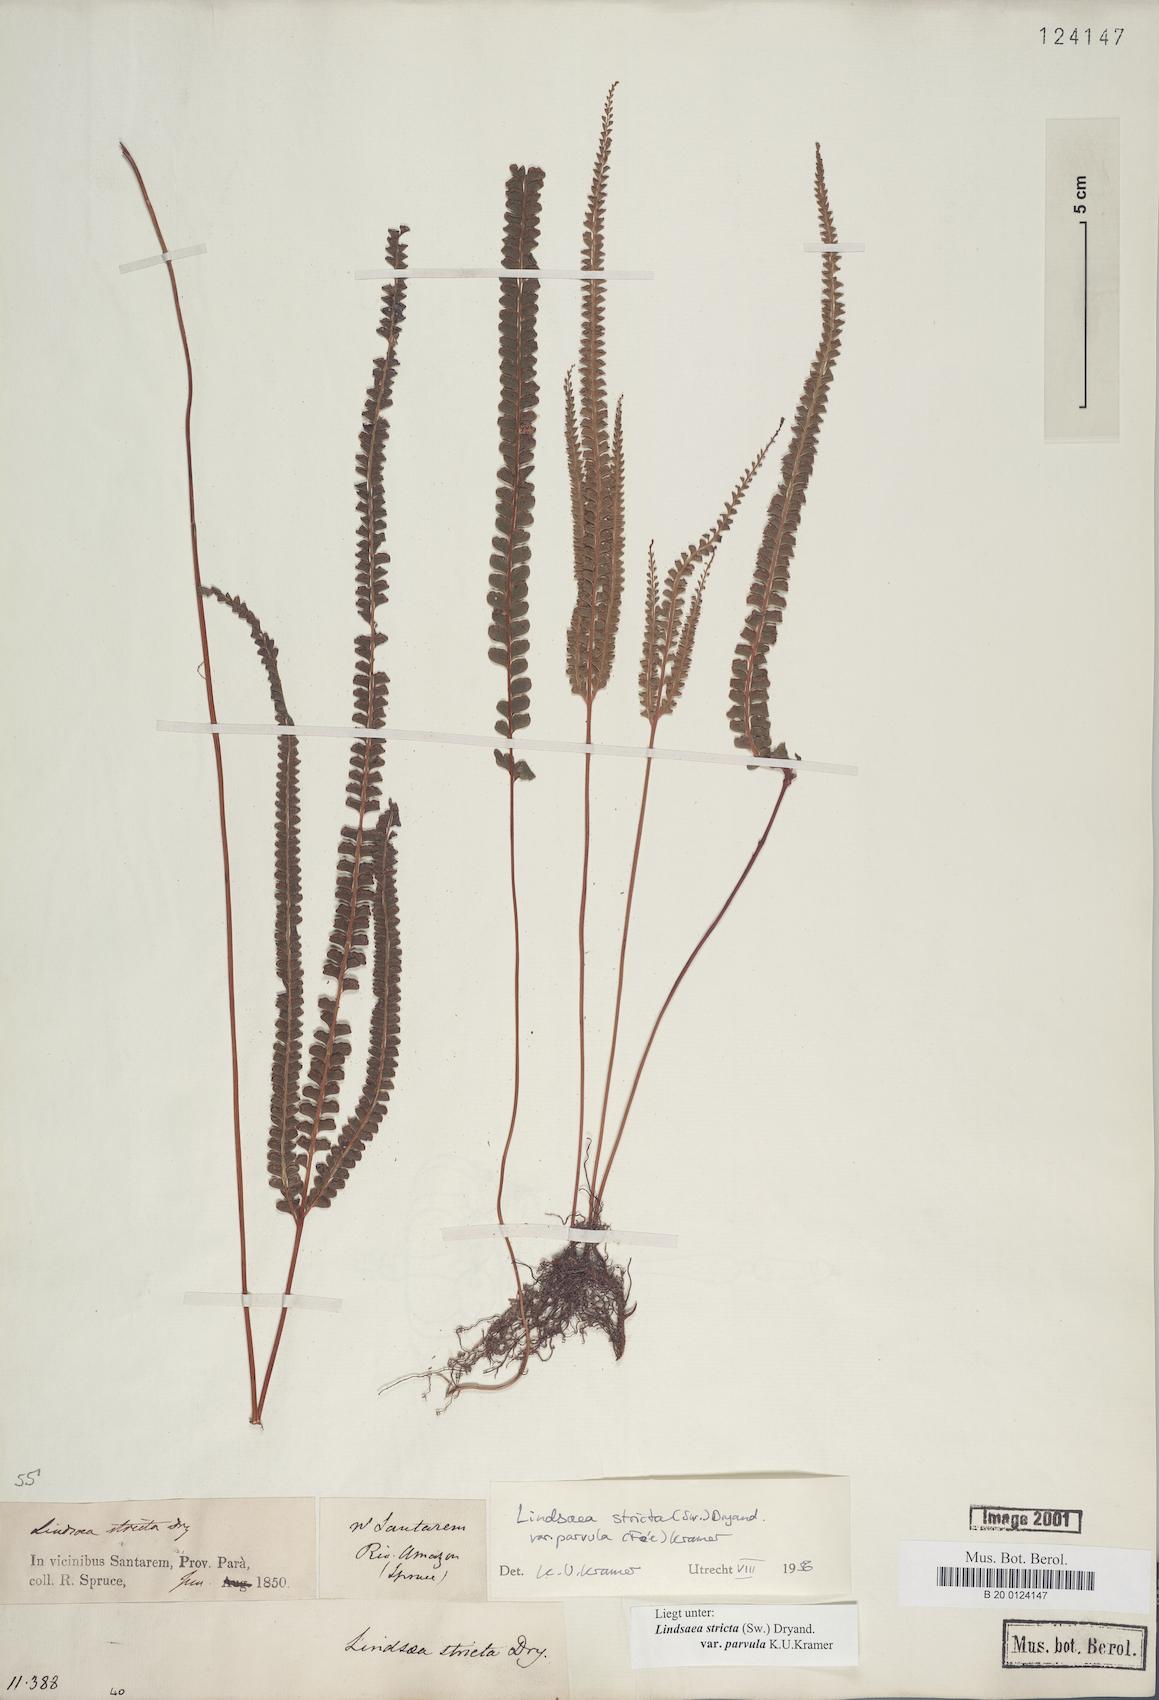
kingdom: Plantae
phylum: Tracheophyta
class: Polypodiopsida
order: Polypodiales
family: Lindsaeaceae
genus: Lindsaea
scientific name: Lindsaea stricta
